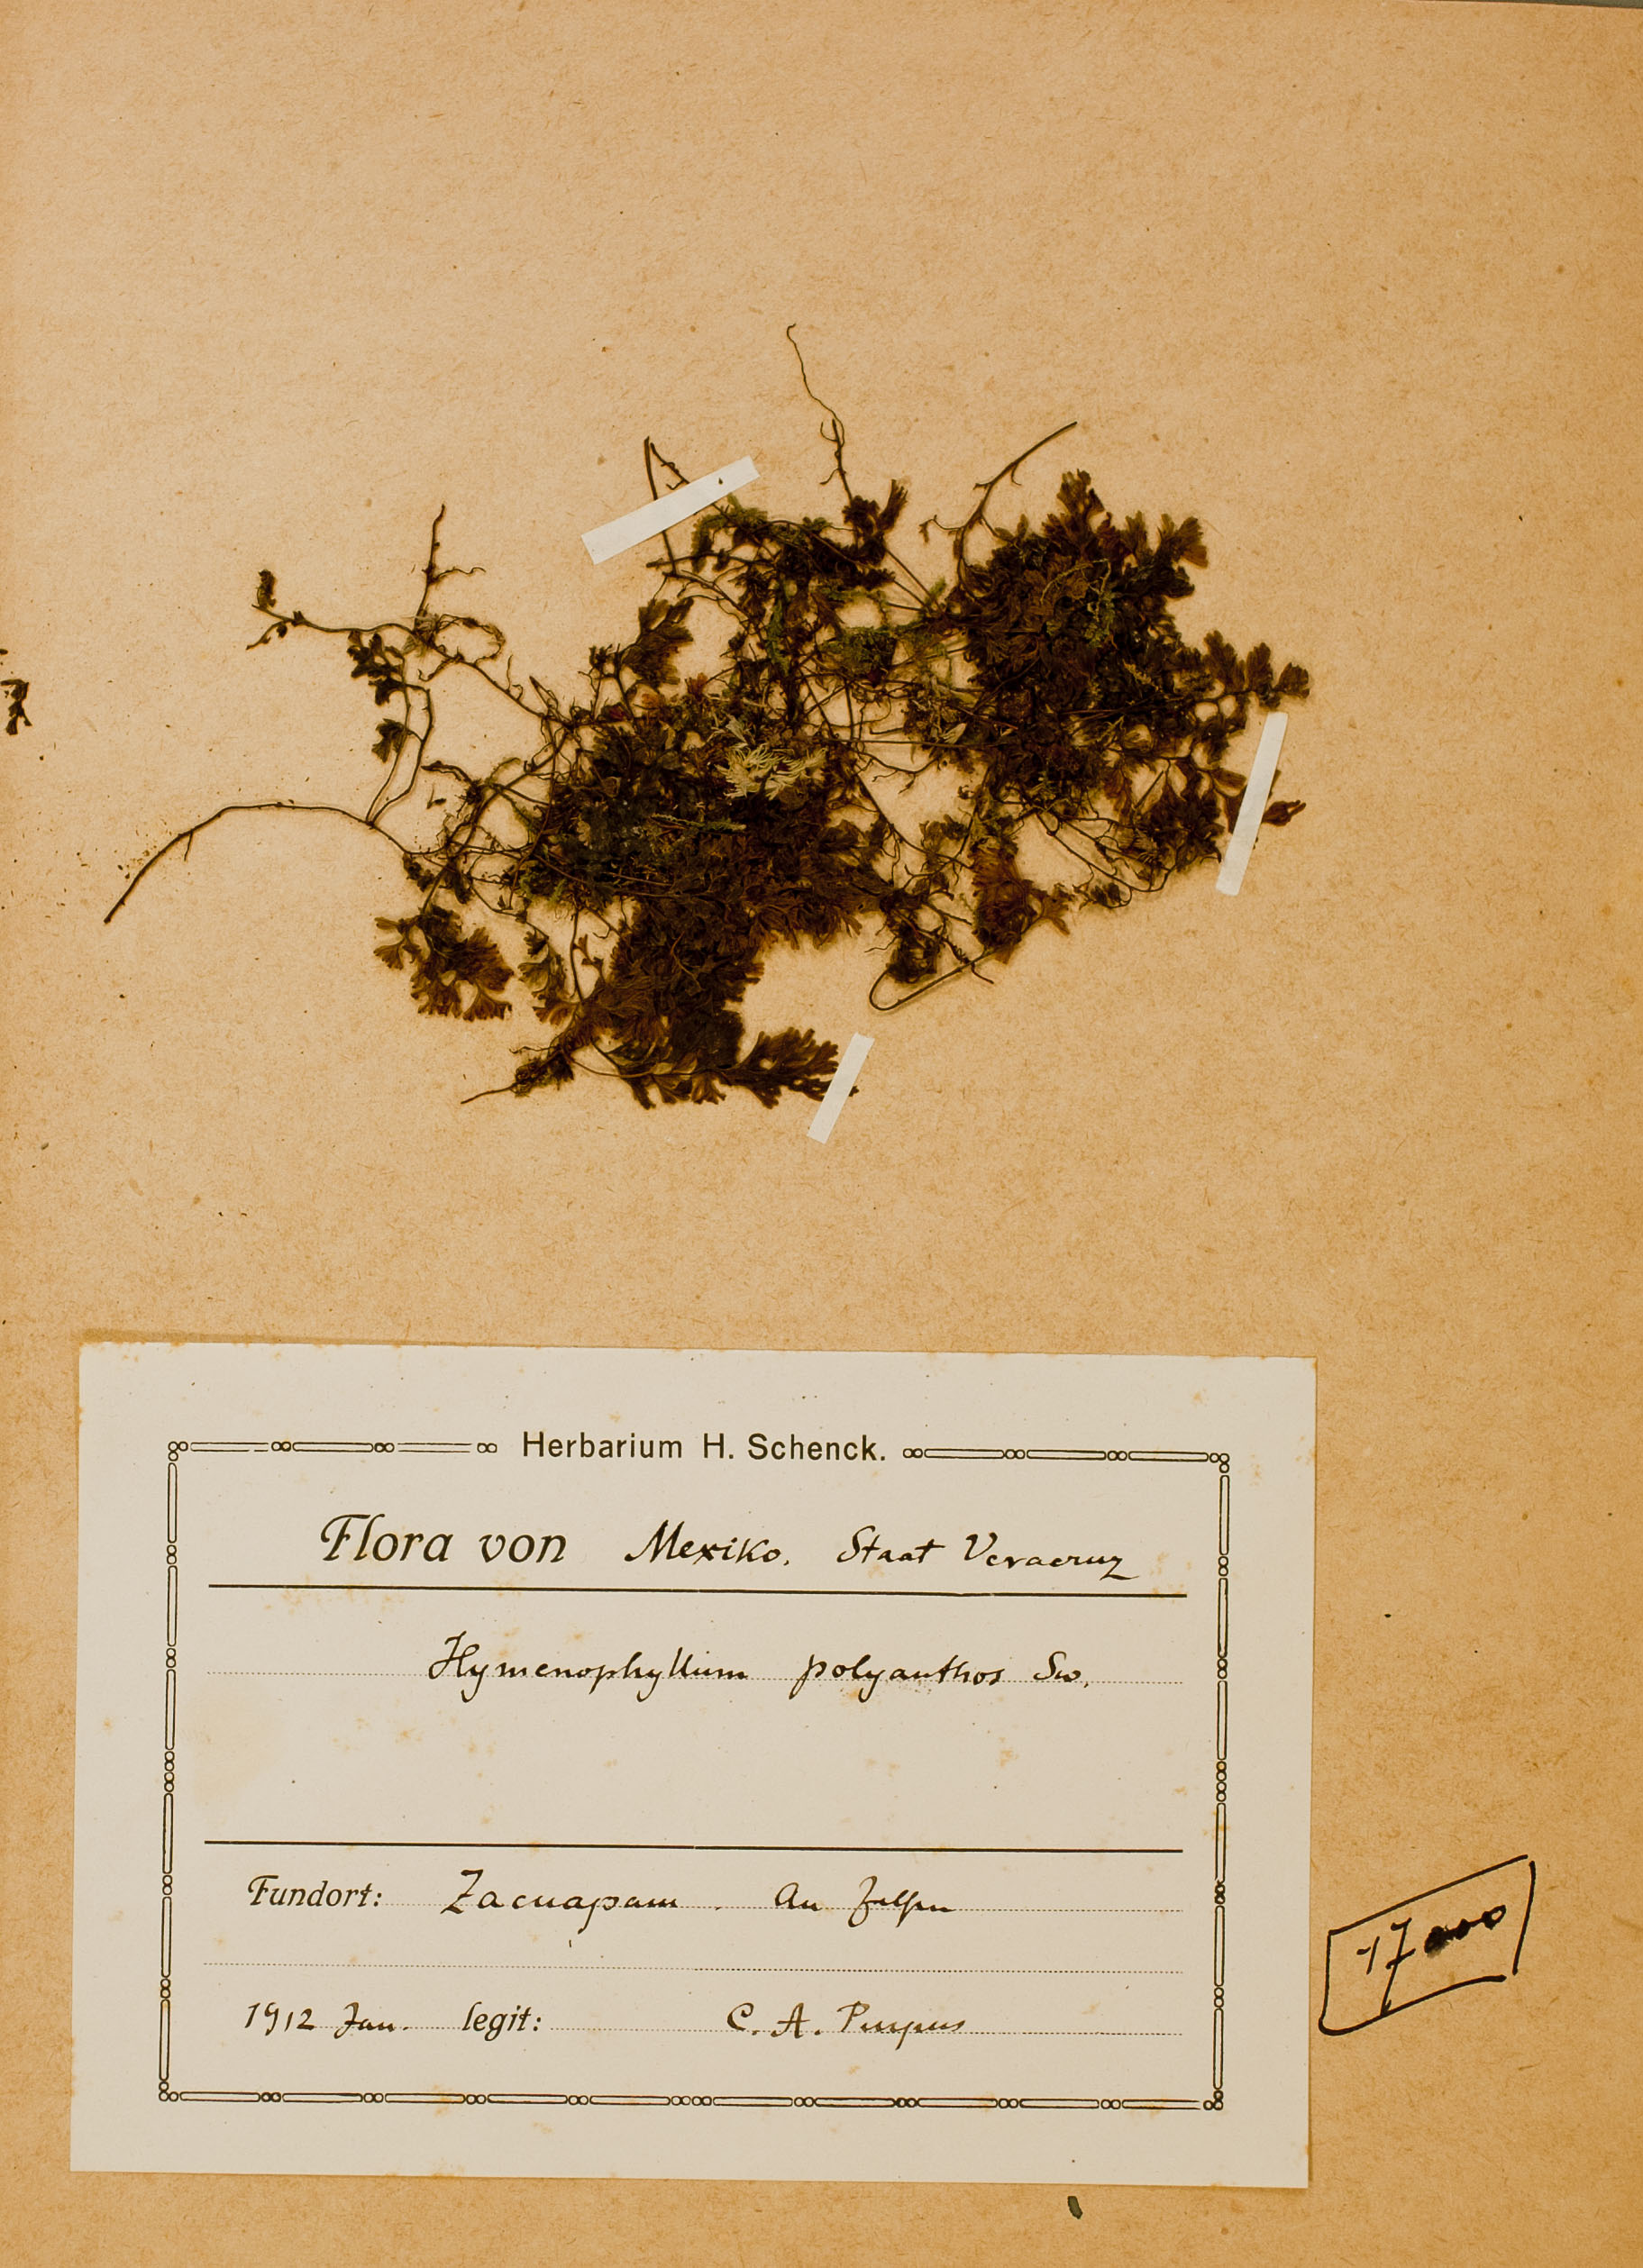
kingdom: Plantae
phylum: Tracheophyta
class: Polypodiopsida
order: Hymenophyllales
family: Hymenophyllaceae
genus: Hymenophyllum
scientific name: Hymenophyllum polyanthos
